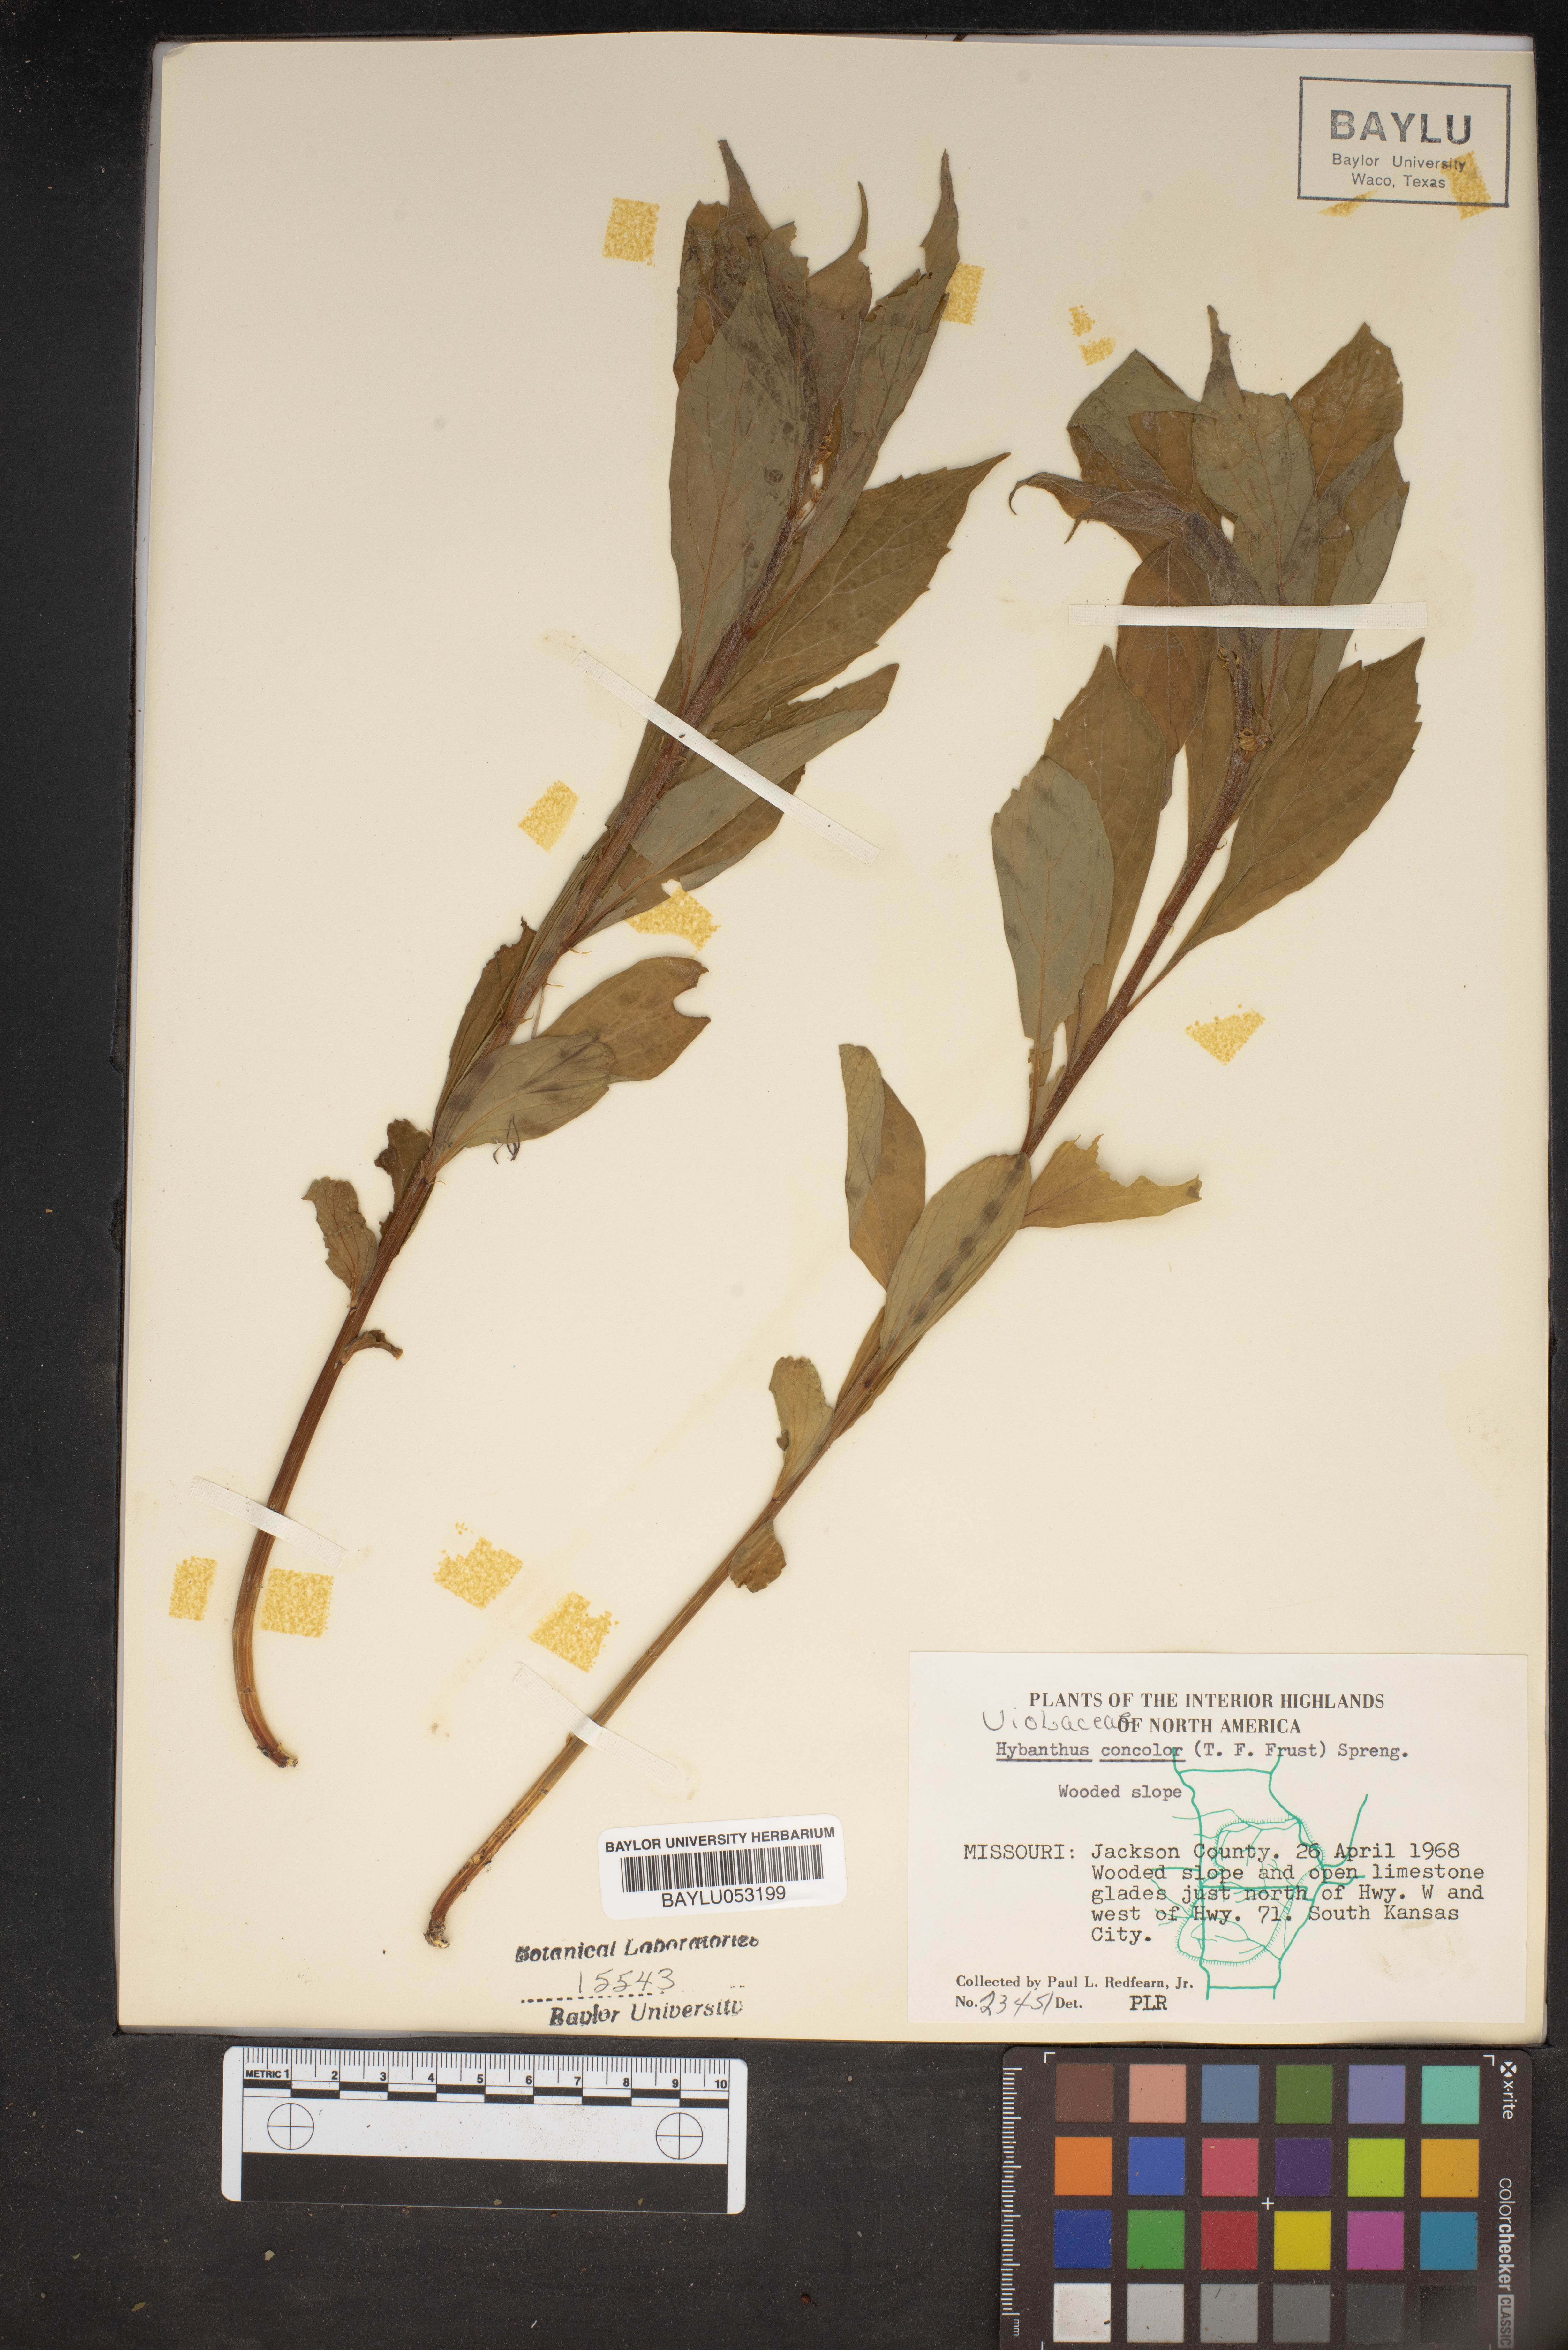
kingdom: Plantae
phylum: Tracheophyta
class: Magnoliopsida
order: Malpighiales
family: Violaceae
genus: Cubelium
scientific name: Cubelium concolor
